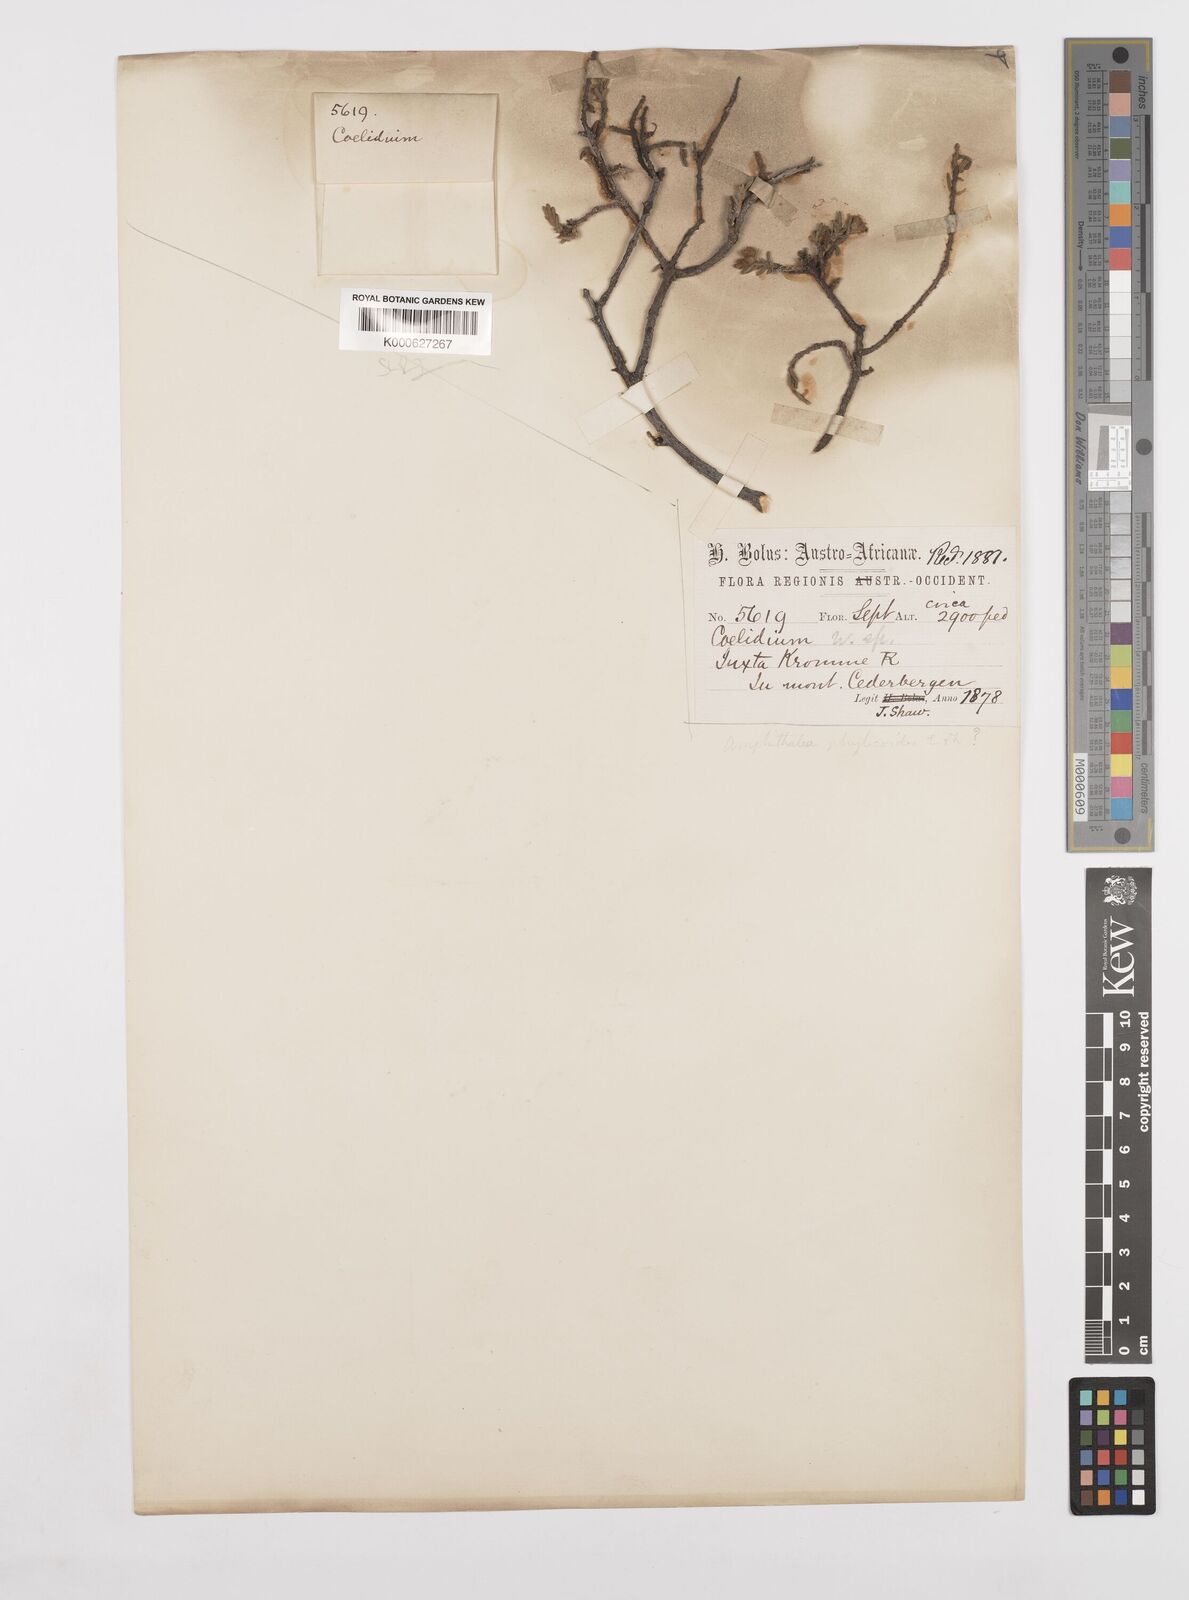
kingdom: Plantae
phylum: Tracheophyta
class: Magnoliopsida
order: Fabales
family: Fabaceae
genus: Amphithalea
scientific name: Amphithalea villosa
